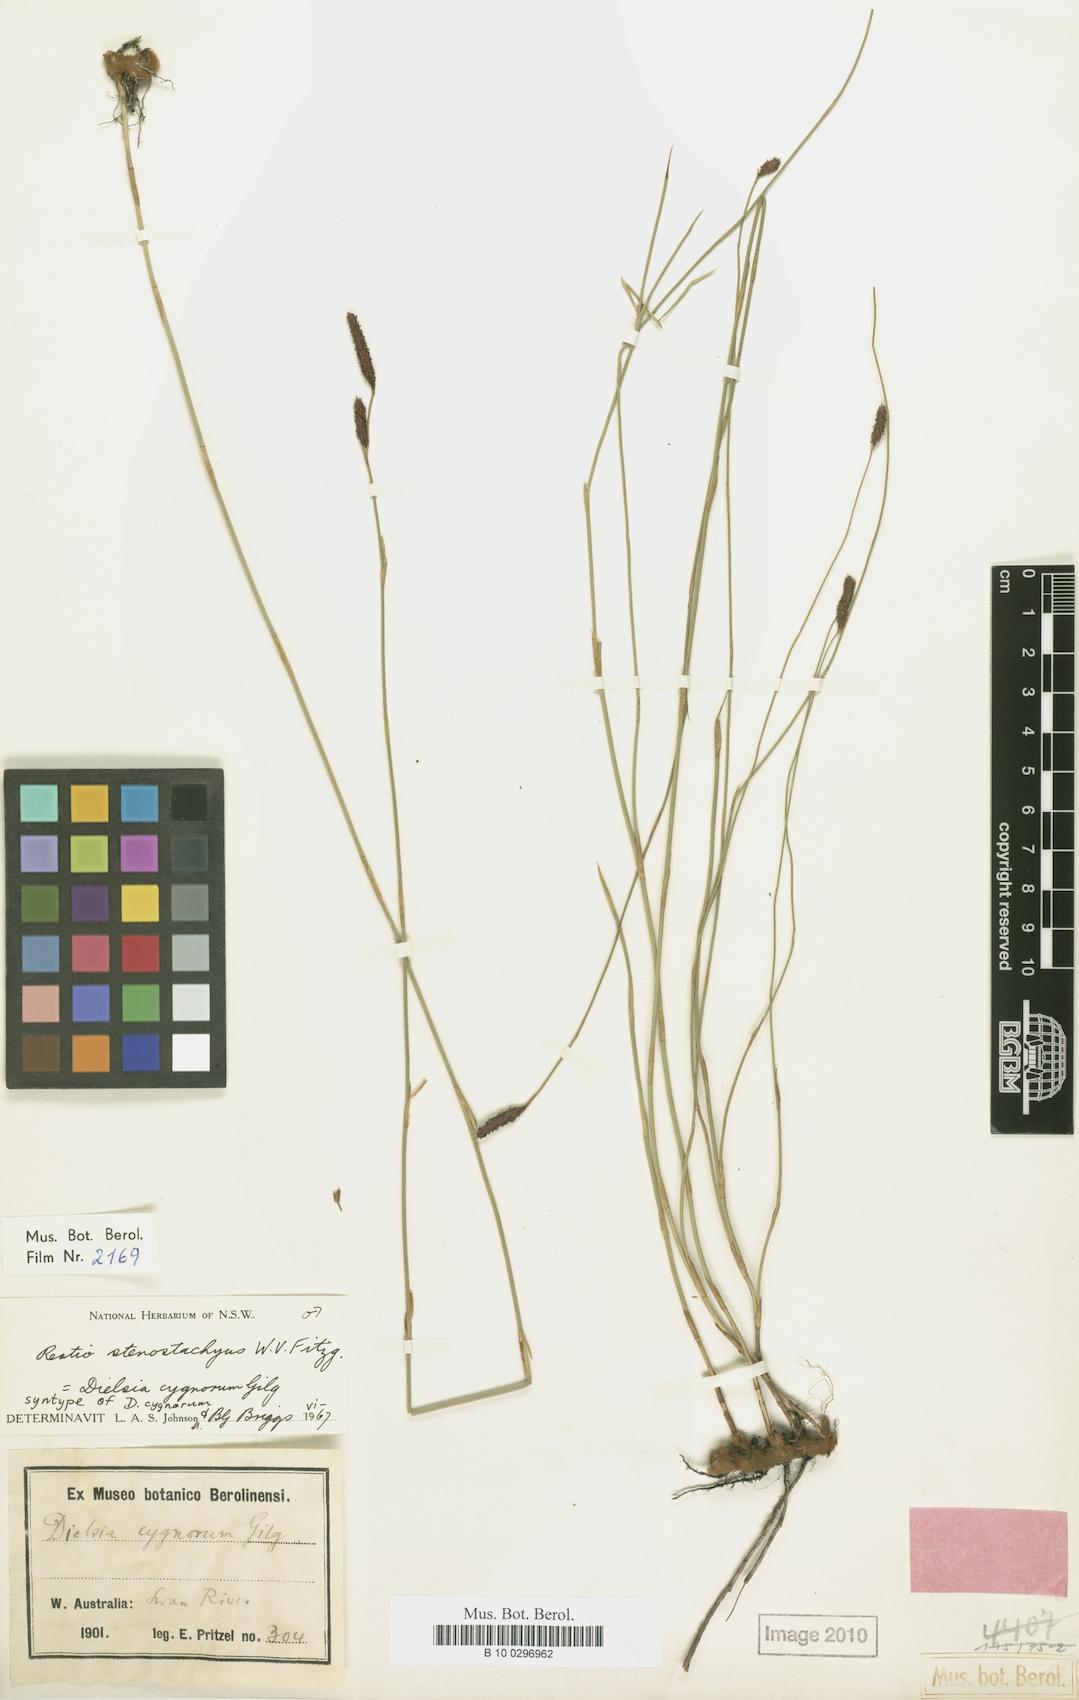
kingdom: Plantae
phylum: Tracheophyta
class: Liliopsida
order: Poales
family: Restionaceae
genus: Dielsia
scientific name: Dielsia stenostachya
